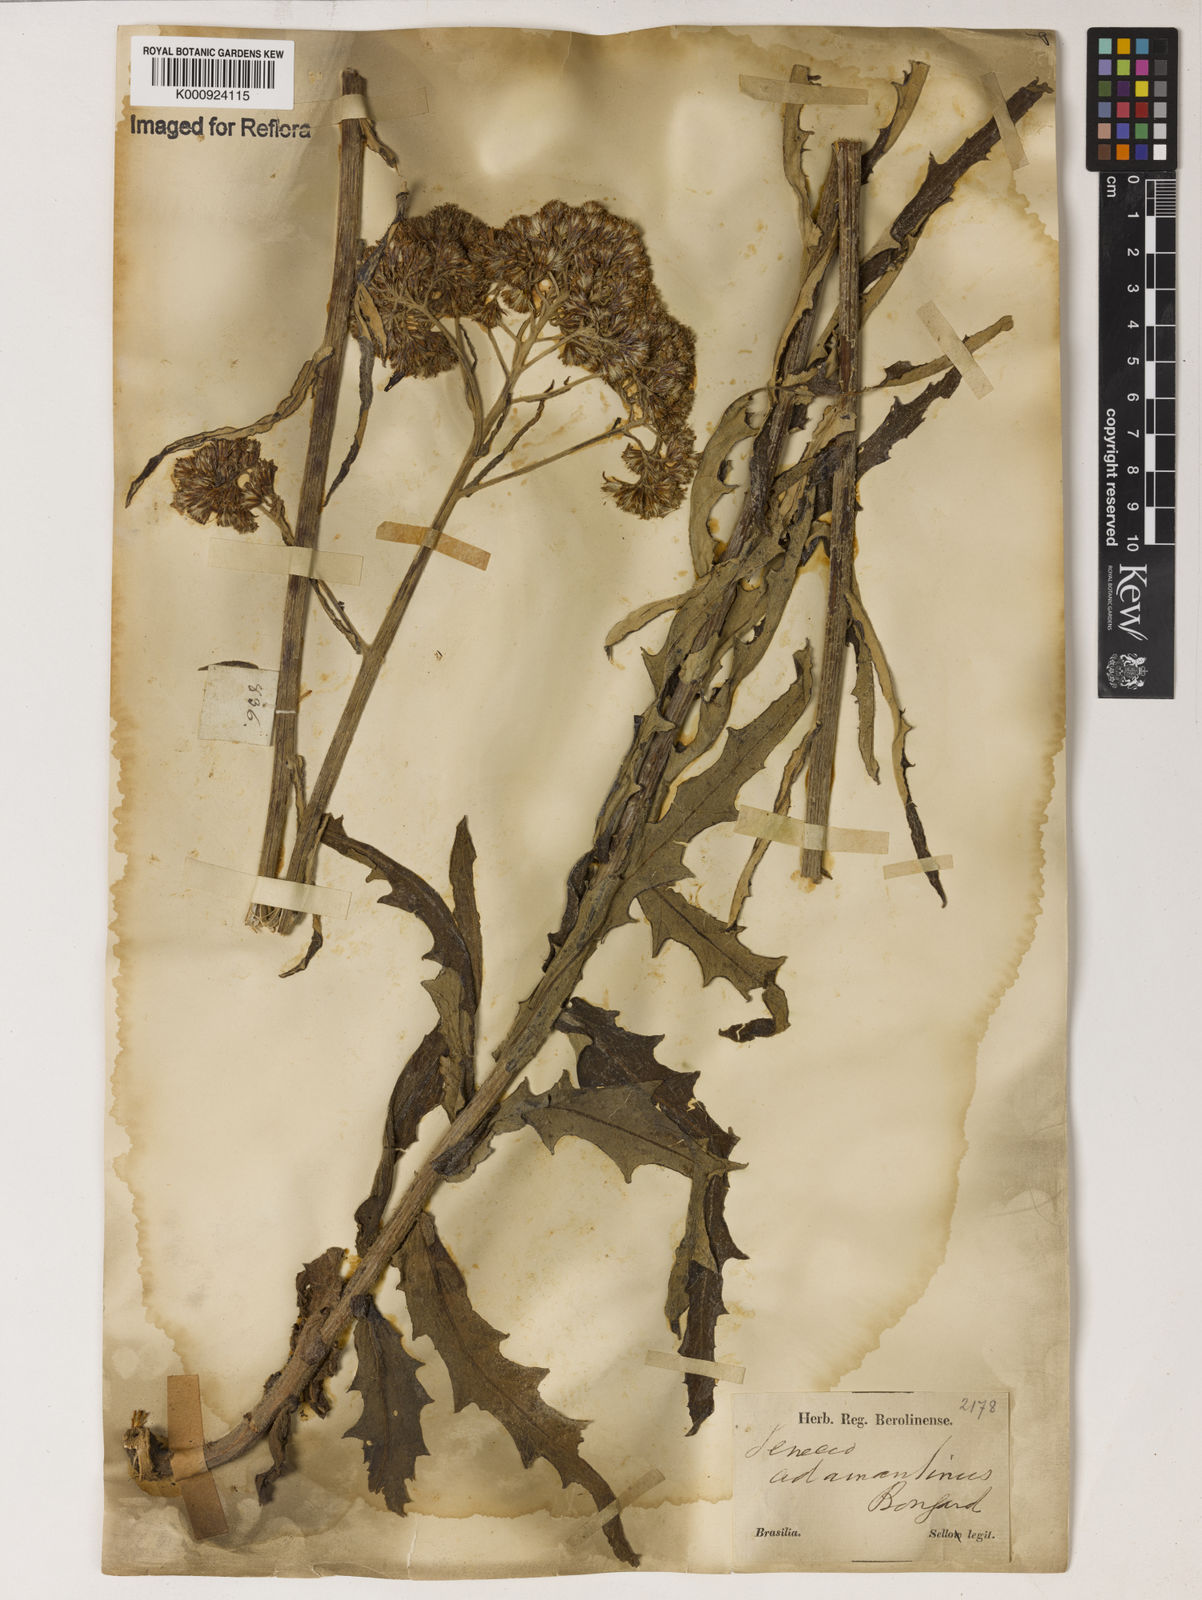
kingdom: Plantae
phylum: Tracheophyta
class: Magnoliopsida
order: Asterales
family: Asteraceae
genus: Senecio
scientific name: Senecio
